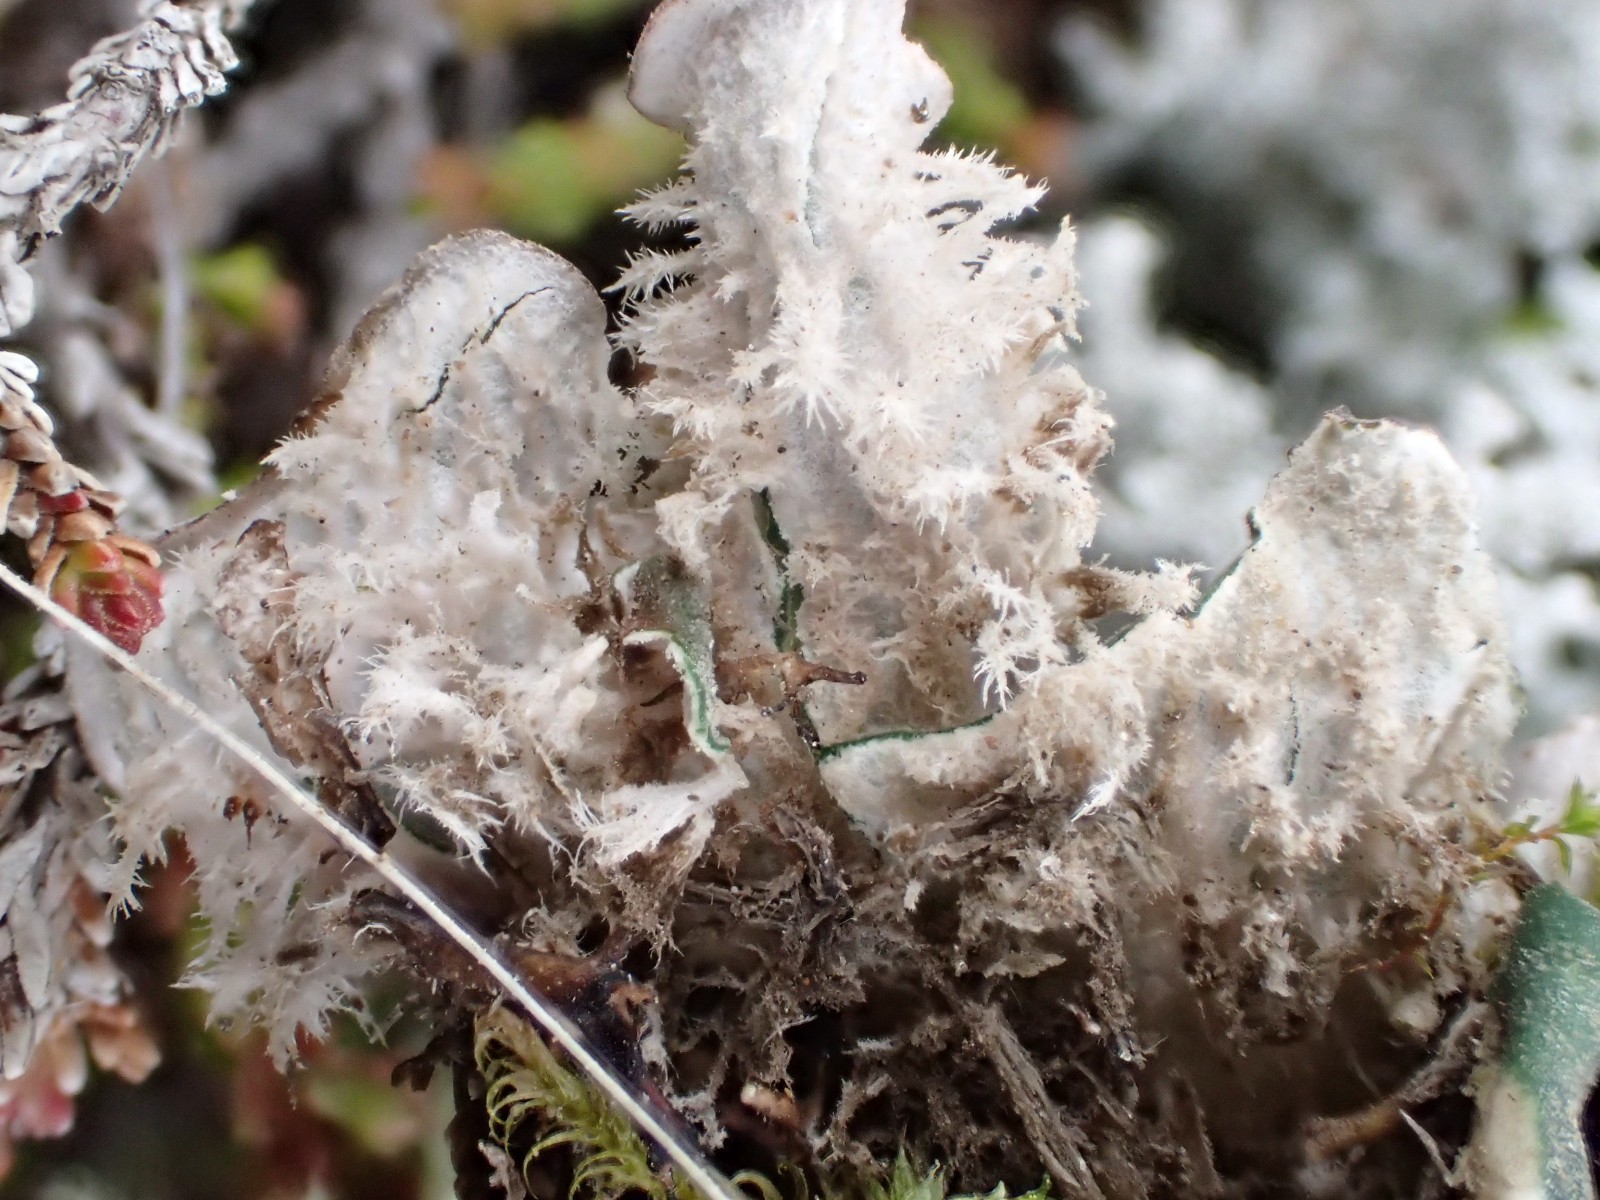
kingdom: Fungi
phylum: Ascomycota
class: Lecanoromycetes
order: Peltigerales
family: Peltigeraceae
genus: Peltigera
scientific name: Peltigera canina
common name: hunde-skjoldlav
